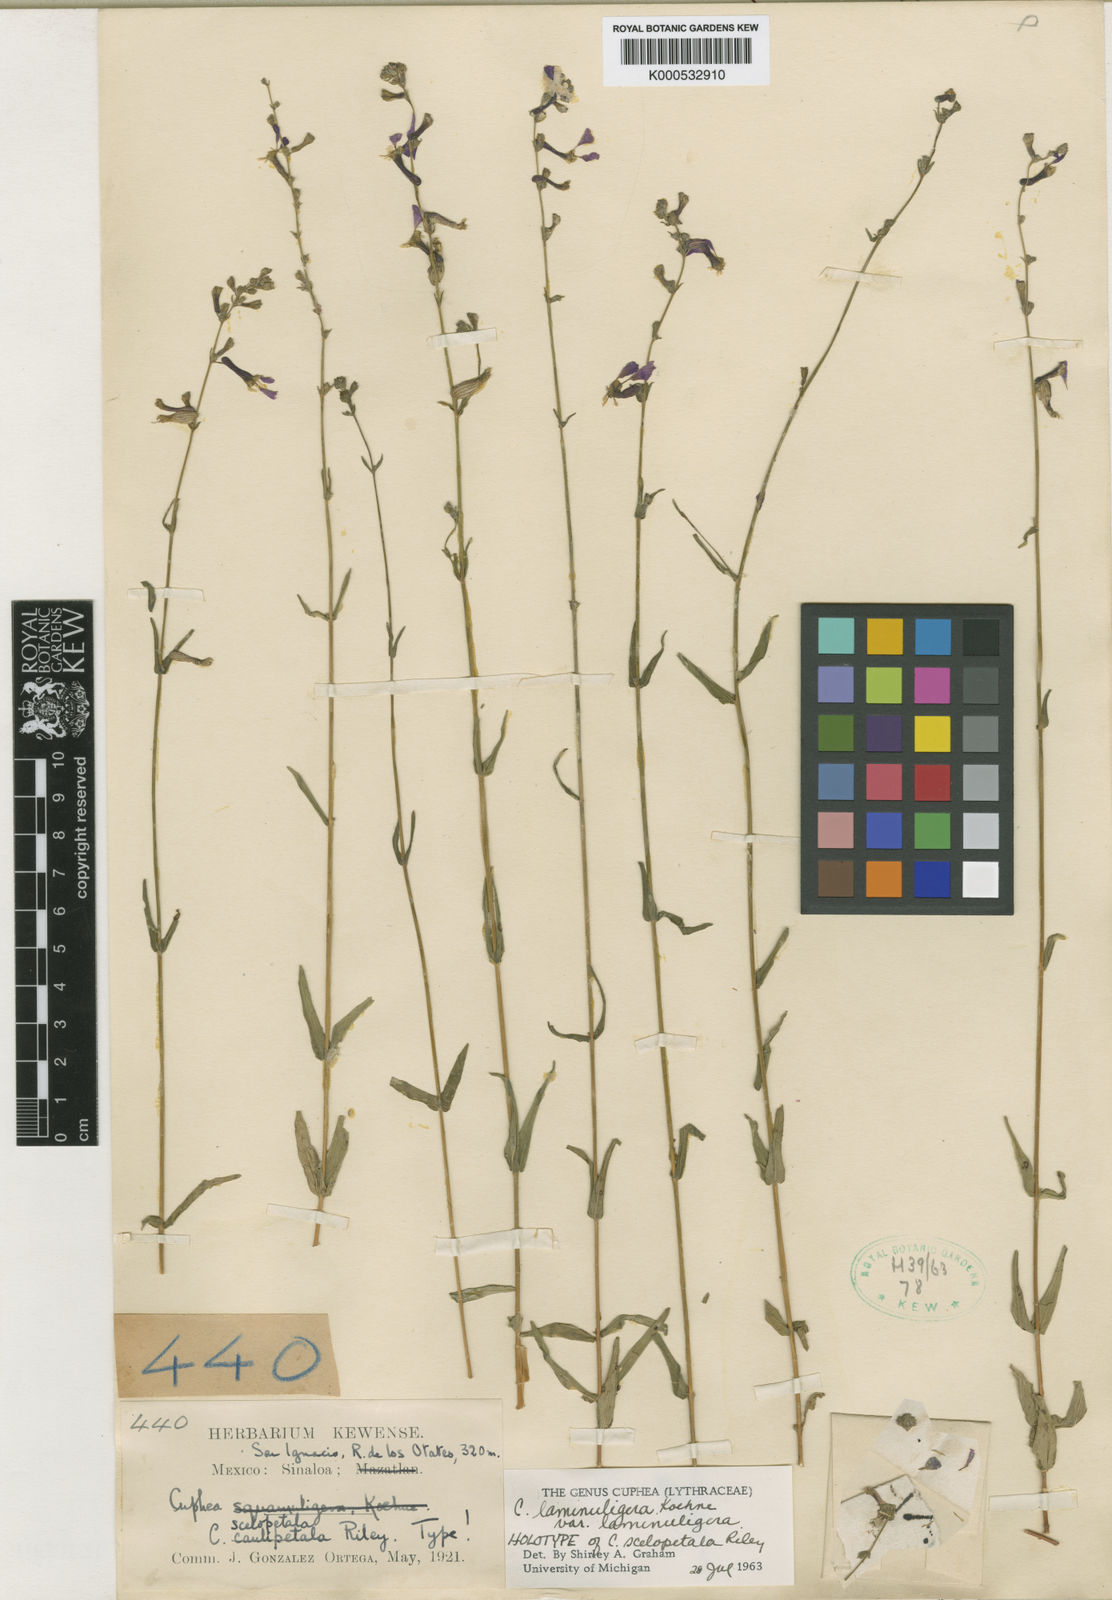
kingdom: Plantae
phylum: Tracheophyta
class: Magnoliopsida
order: Myrtales
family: Lythraceae
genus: Cuphea
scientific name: Cuphea laminuligera
